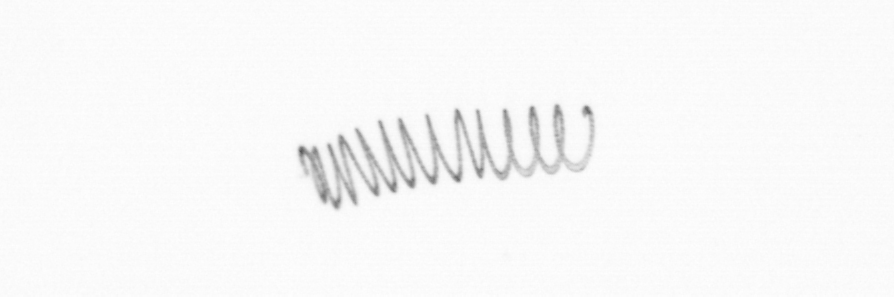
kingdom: Chromista
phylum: Ochrophyta
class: Bacillariophyceae
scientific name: Bacillariophyceae
